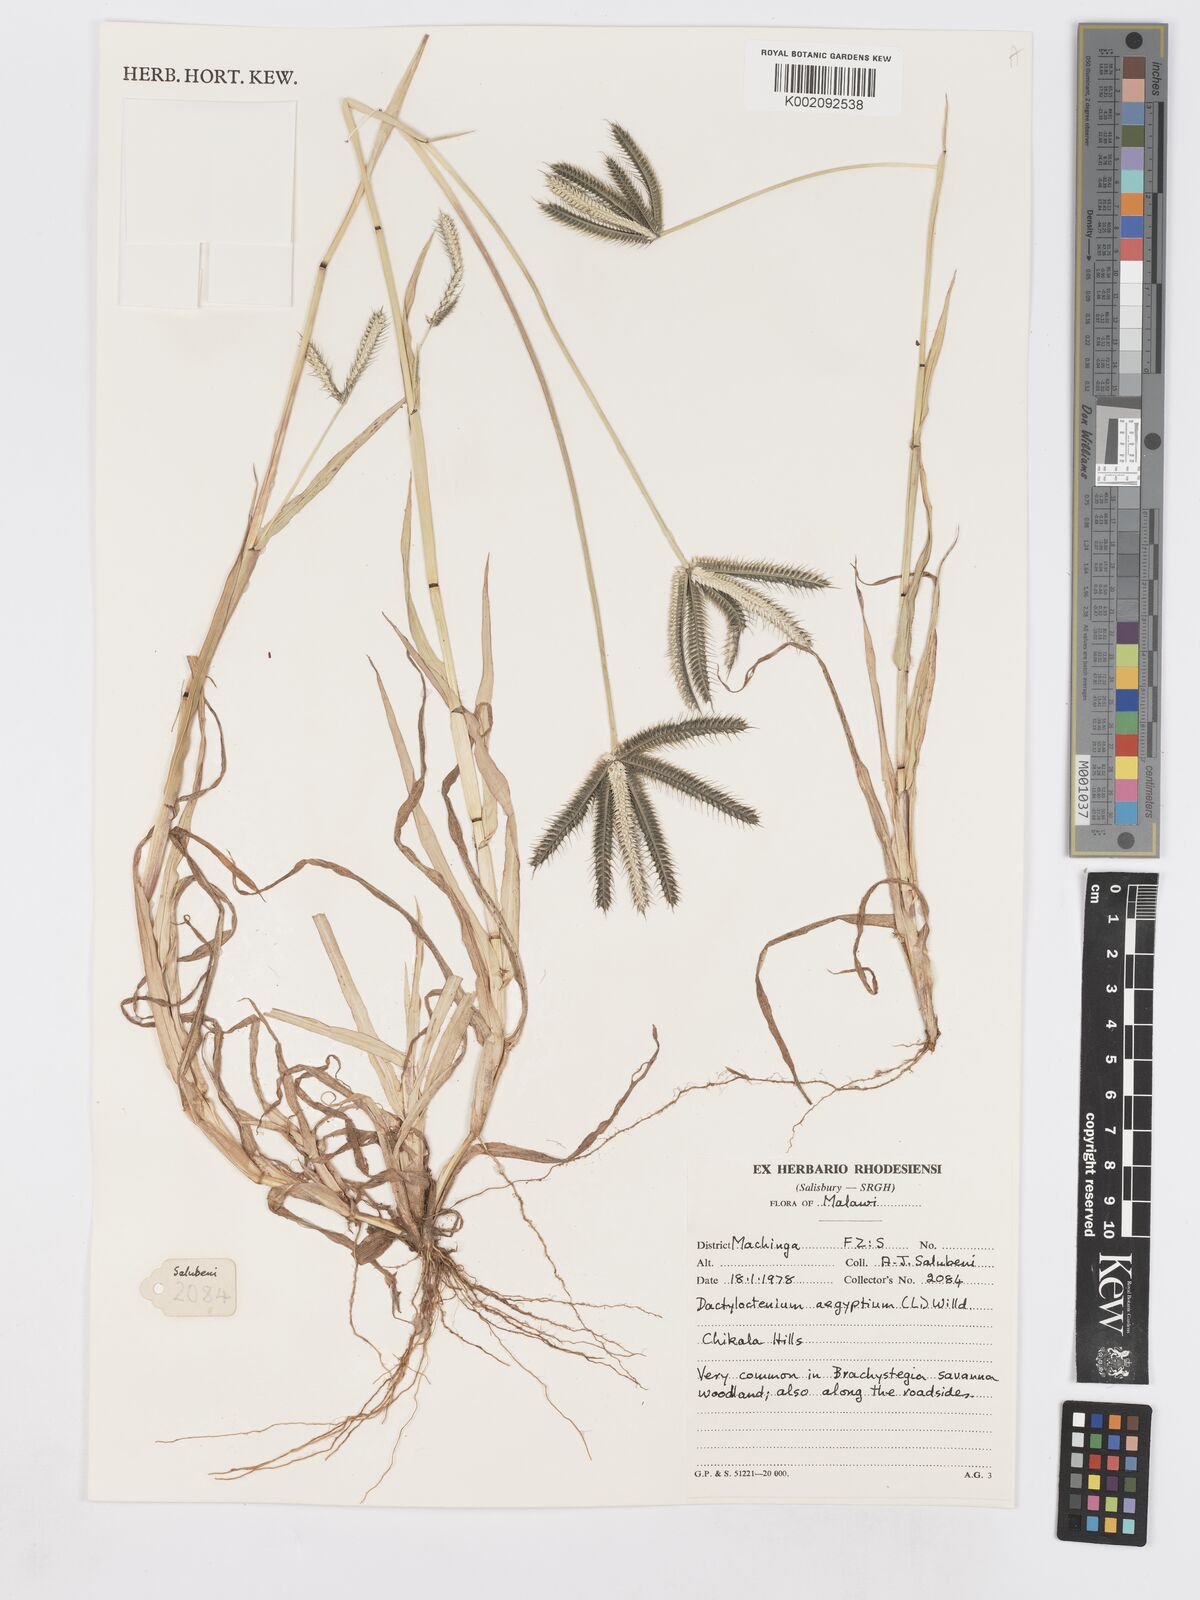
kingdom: Plantae
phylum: Tracheophyta
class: Liliopsida
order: Poales
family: Poaceae
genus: Dactyloctenium
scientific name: Dactyloctenium aegyptium
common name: Egyptian grass
